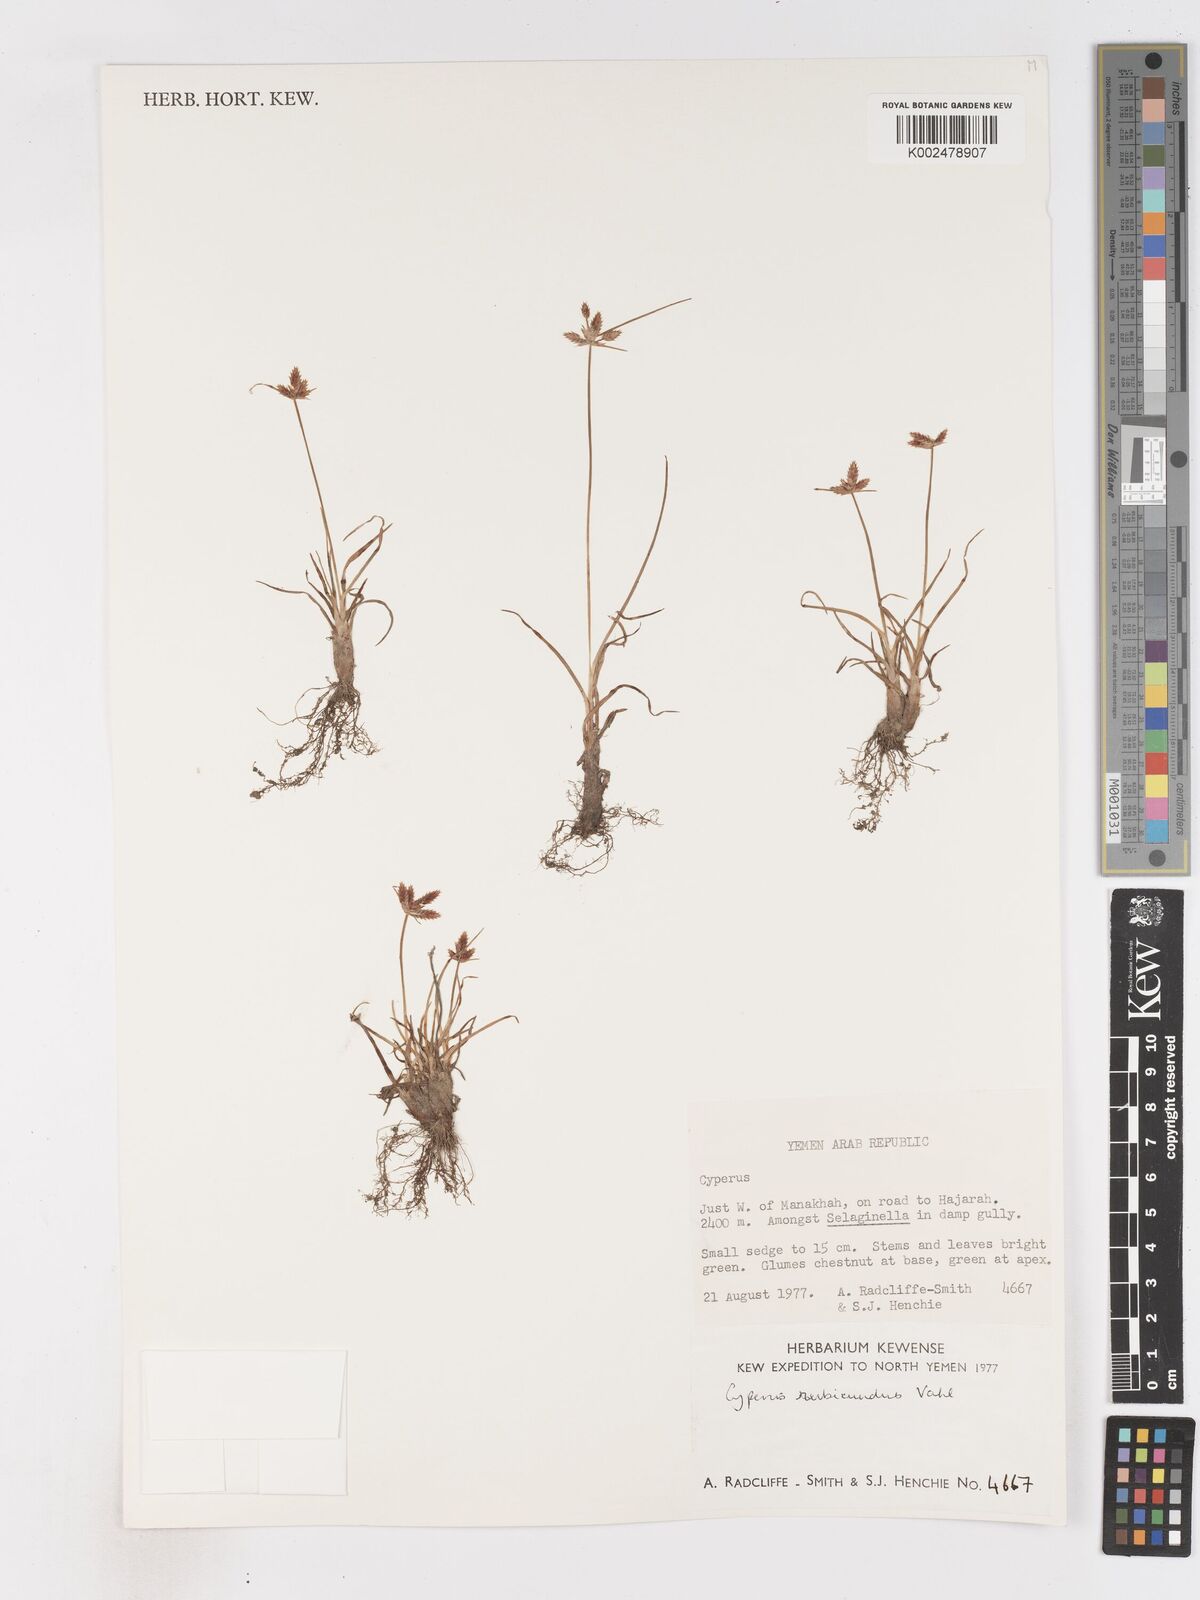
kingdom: Plantae
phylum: Tracheophyta
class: Liliopsida
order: Poales
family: Cyperaceae
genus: Cyperus
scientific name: Cyperus rubicundus
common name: Coco-grass
